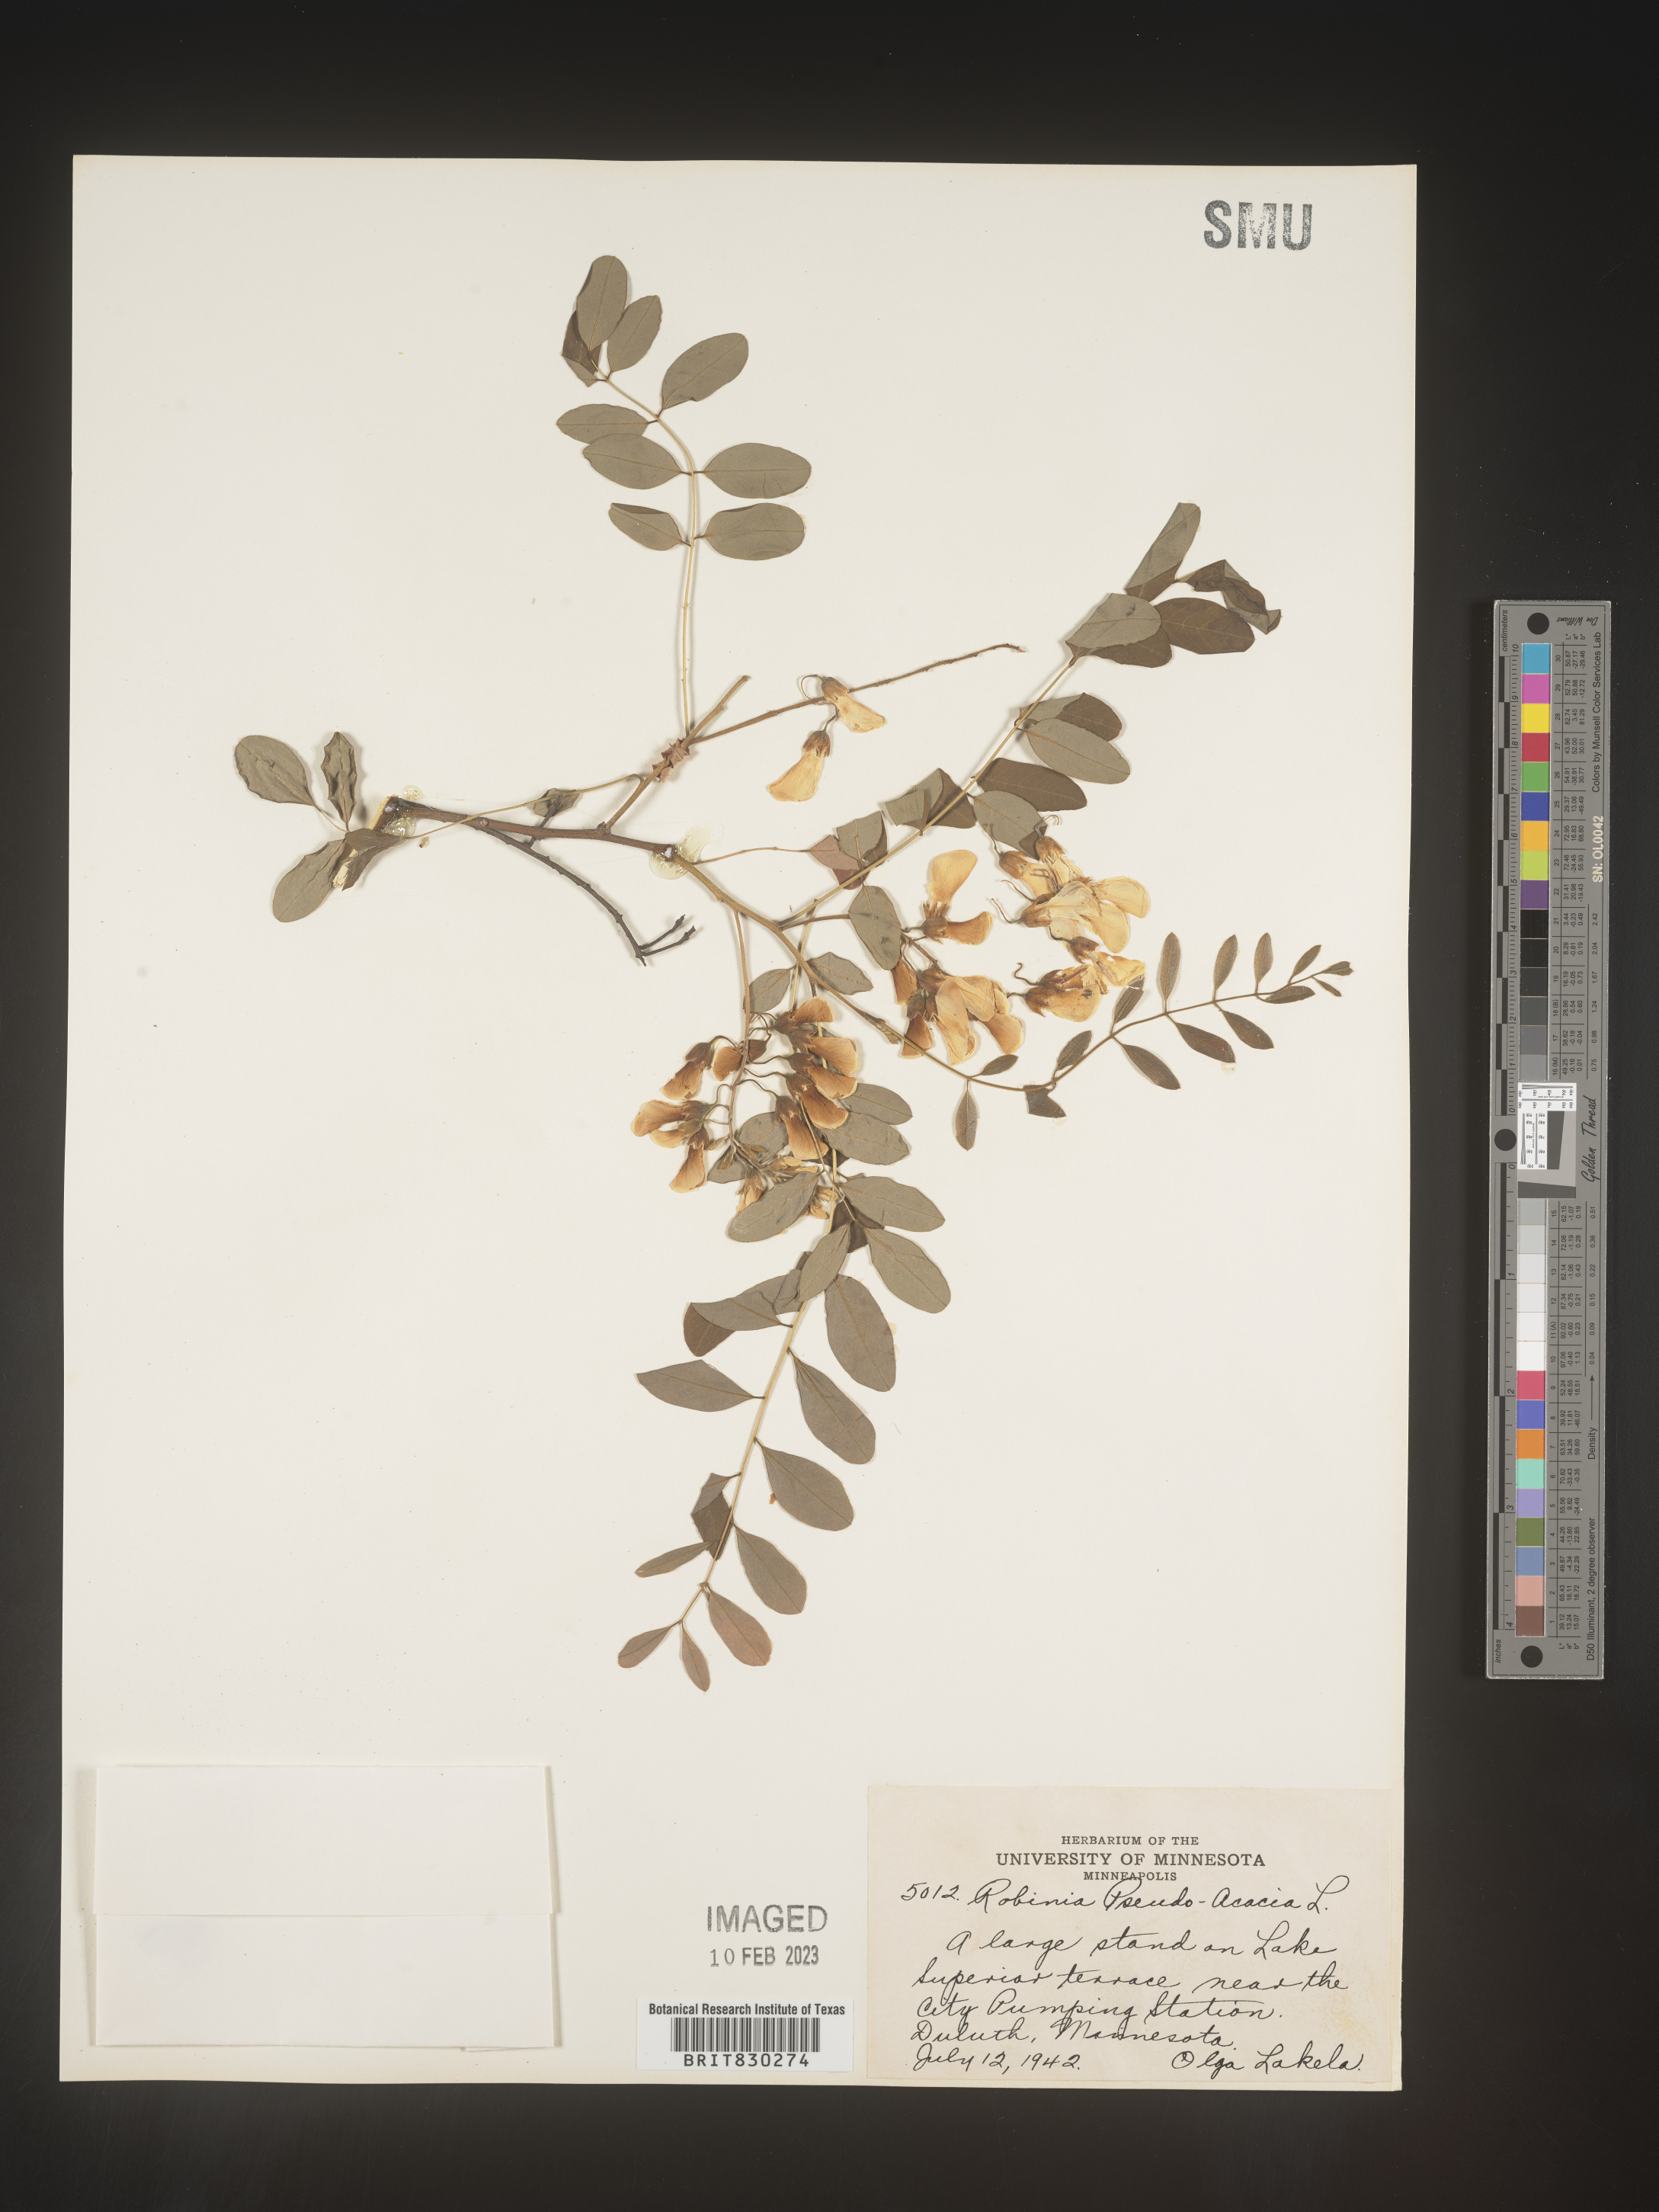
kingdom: Plantae
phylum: Tracheophyta
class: Magnoliopsida
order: Fabales
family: Fabaceae
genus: Robinia
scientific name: Robinia pseudoacacia
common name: Black locust
